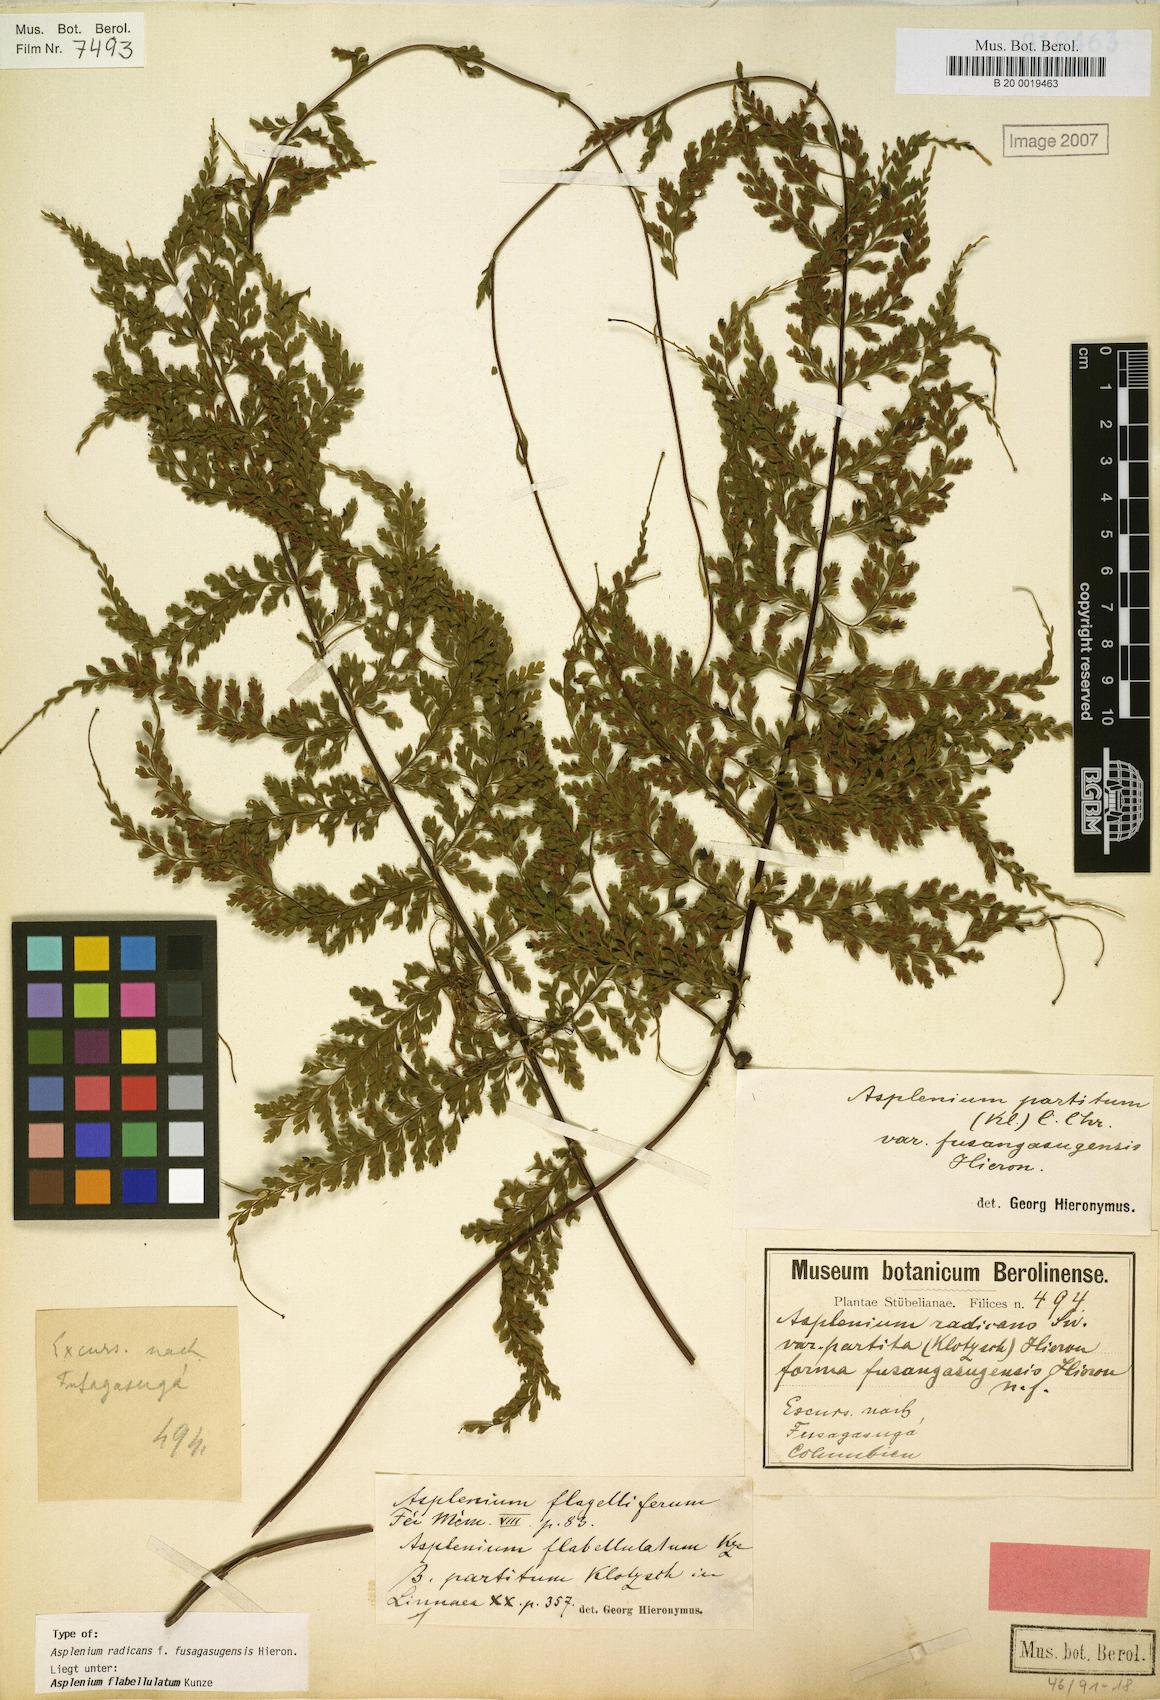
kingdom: Plantae
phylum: Tracheophyta
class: Polypodiopsida
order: Polypodiales
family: Aspleniaceae
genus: Asplenium
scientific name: Asplenium radicans
